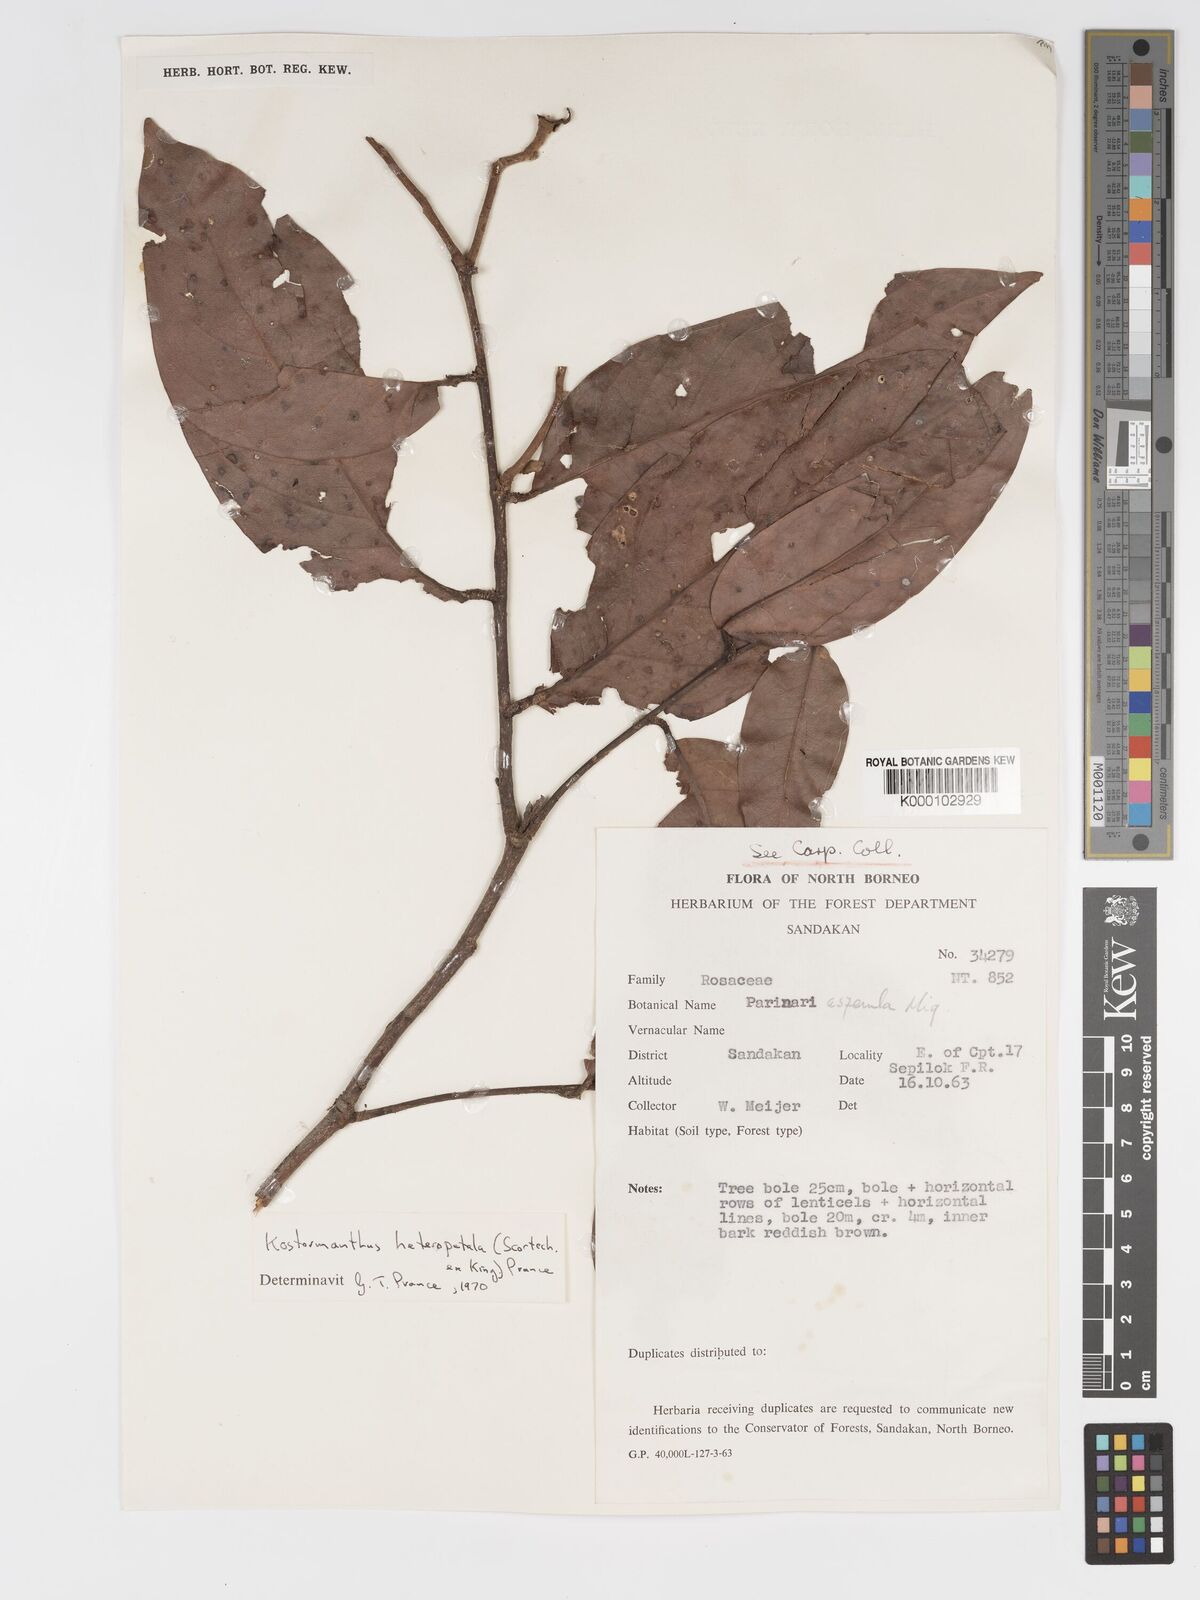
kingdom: Plantae
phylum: Tracheophyta
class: Magnoliopsida
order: Malpighiales
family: Chrysobalanaceae
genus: Kostermanthus
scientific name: Kostermanthus heteropetalus
